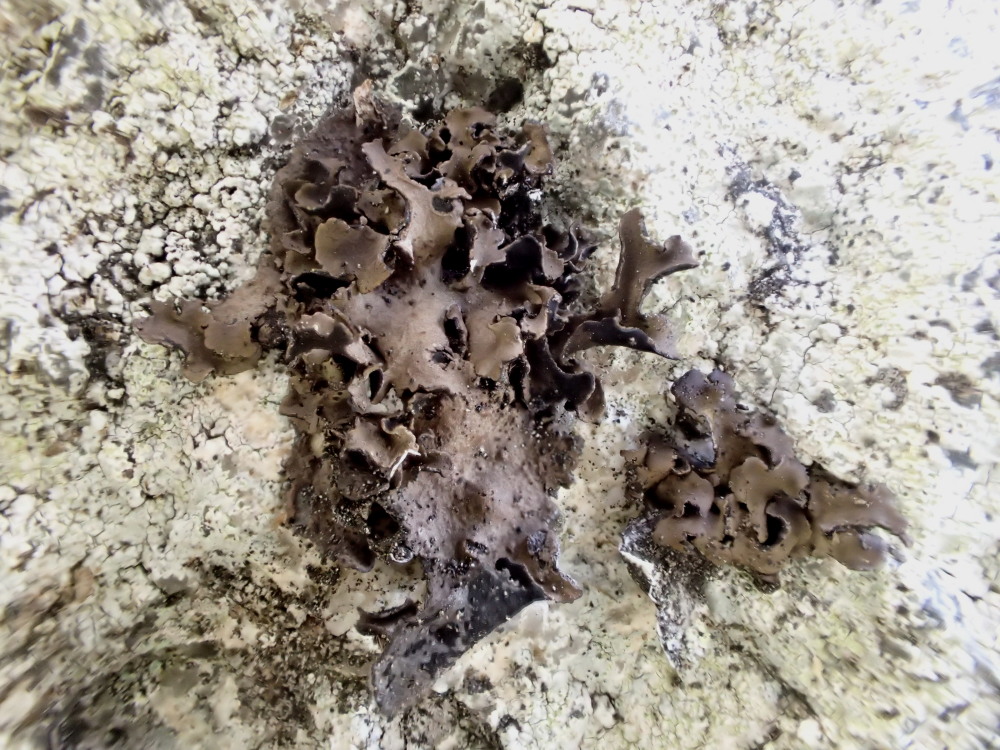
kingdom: Fungi
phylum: Ascomycota
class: Lecanoromycetes
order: Umbilicariales
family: Umbilicariaceae
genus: Umbilicaria
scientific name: Umbilicaria polyphylla
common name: glat navlelav
